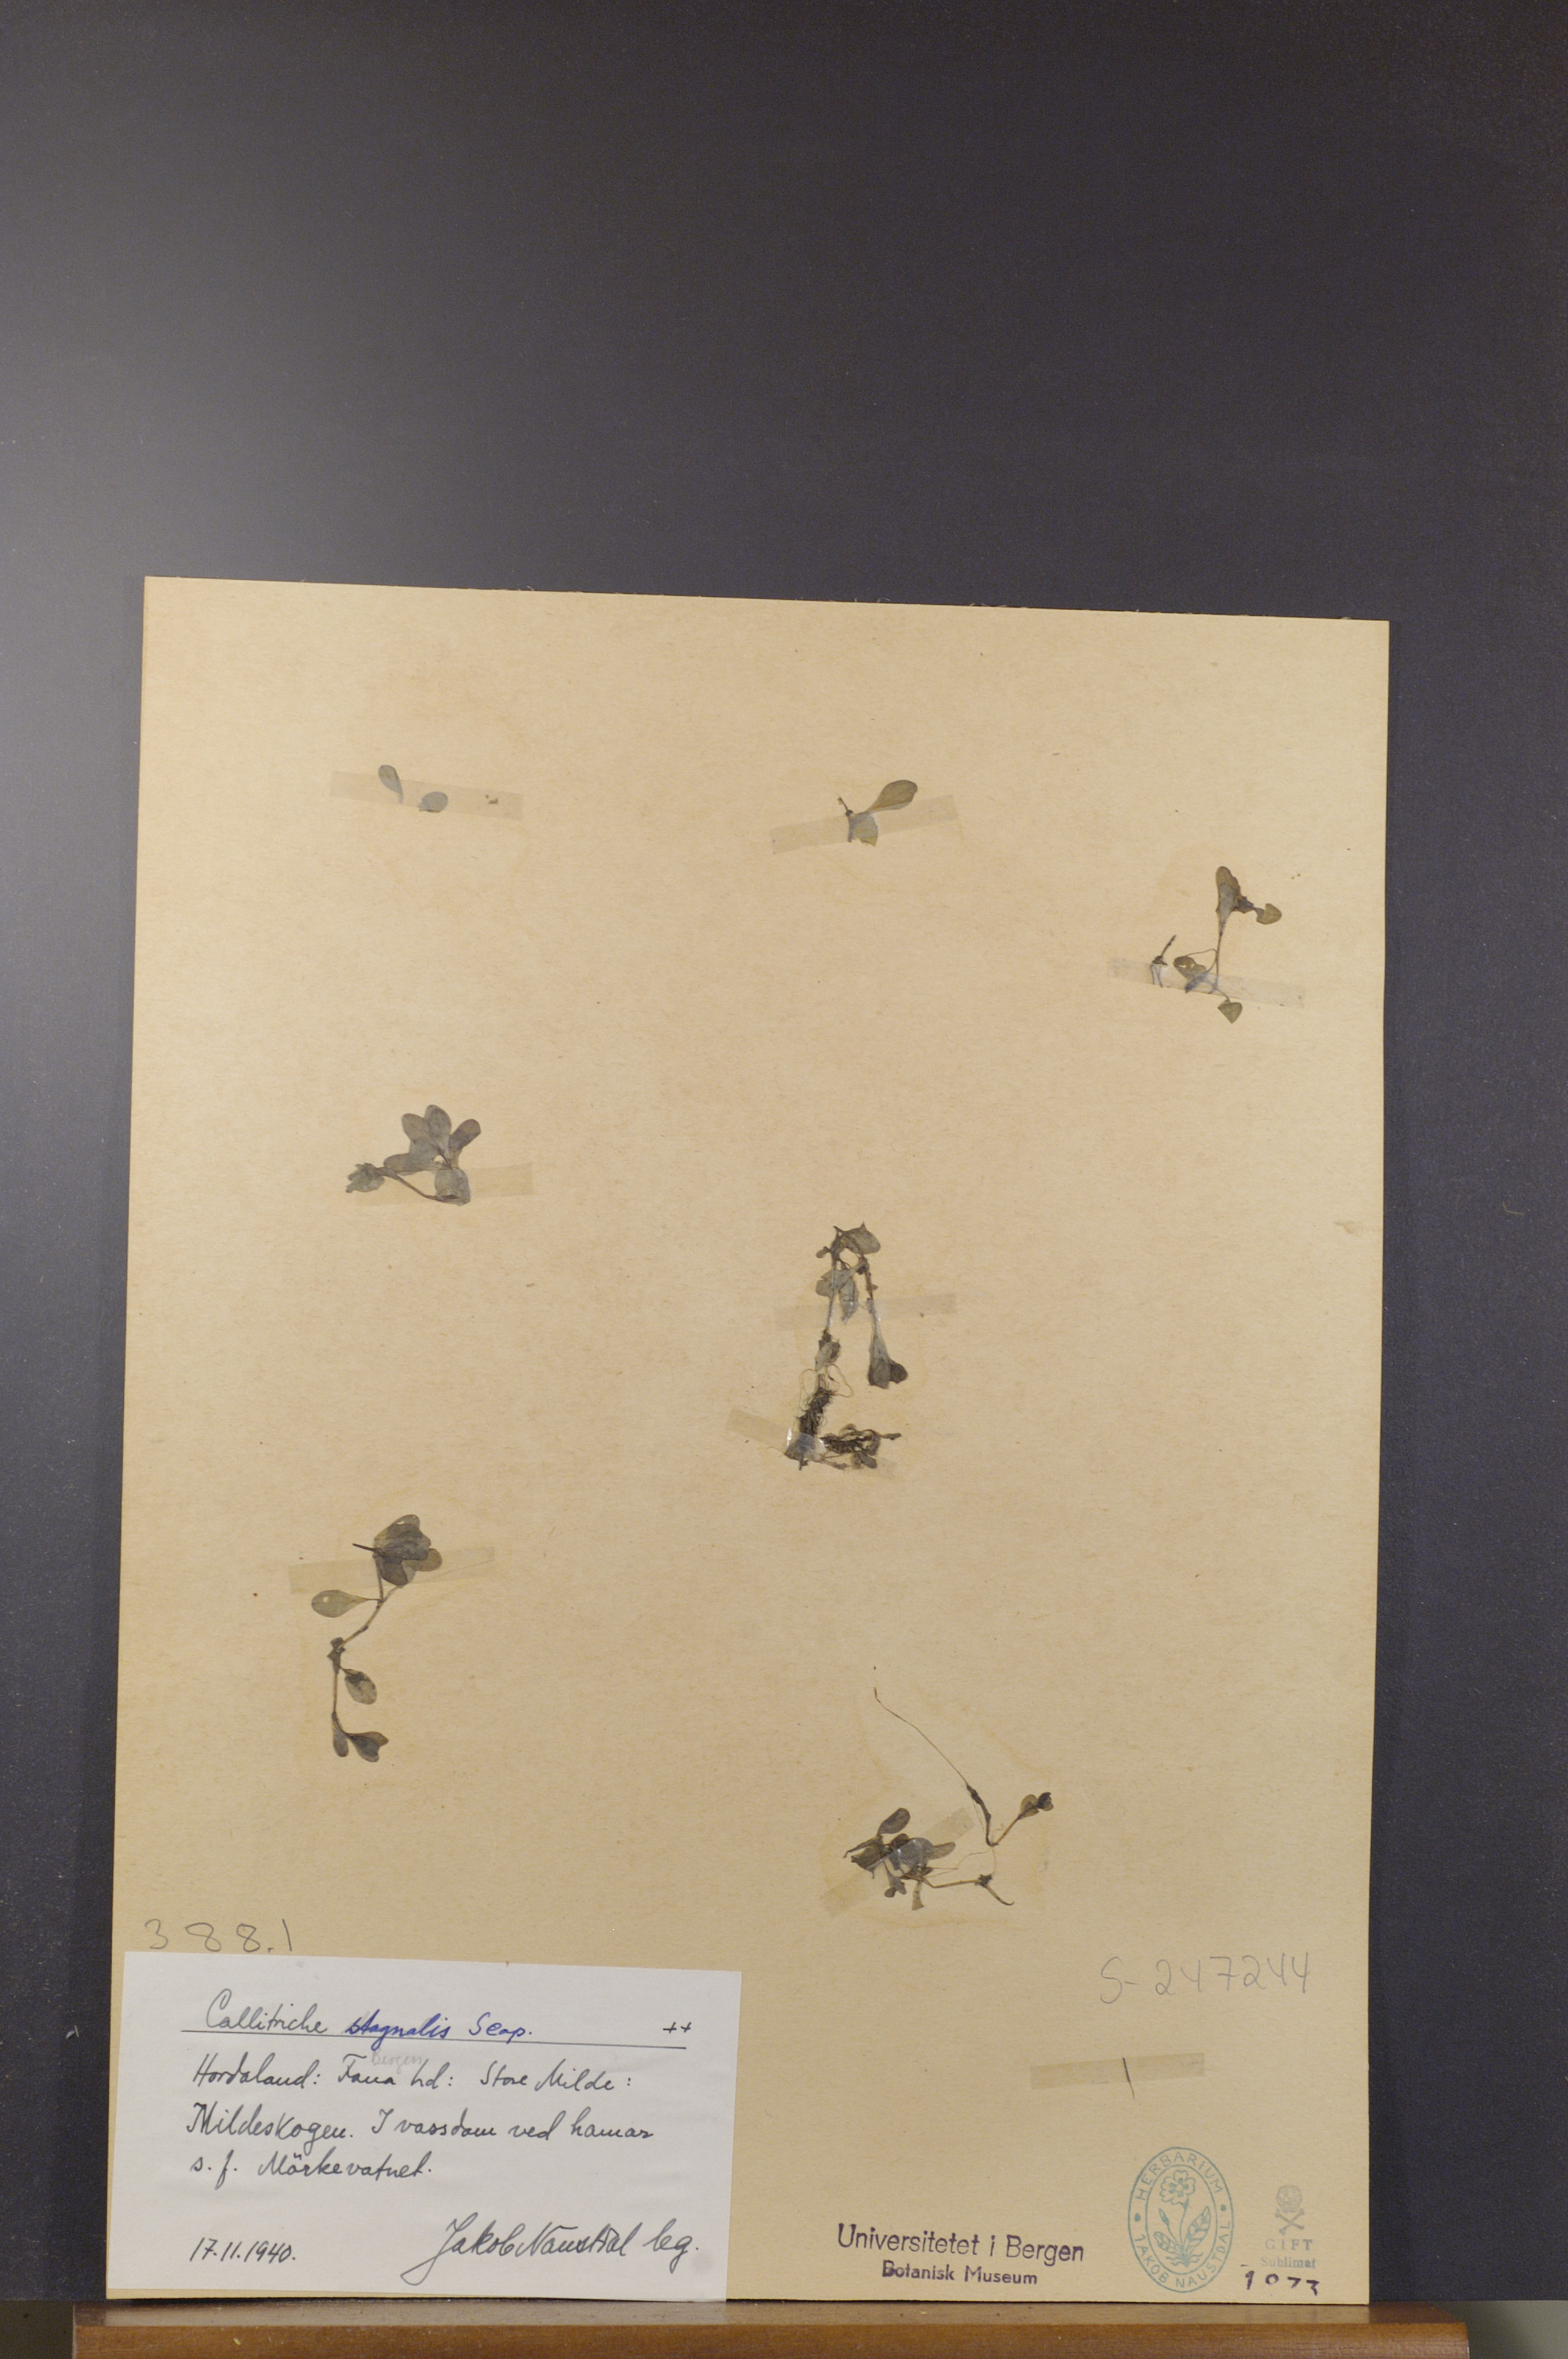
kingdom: Plantae
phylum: Tracheophyta
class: Magnoliopsida
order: Lamiales
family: Plantaginaceae
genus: Callitriche
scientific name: Callitriche stagnalis
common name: Common water-starwort
